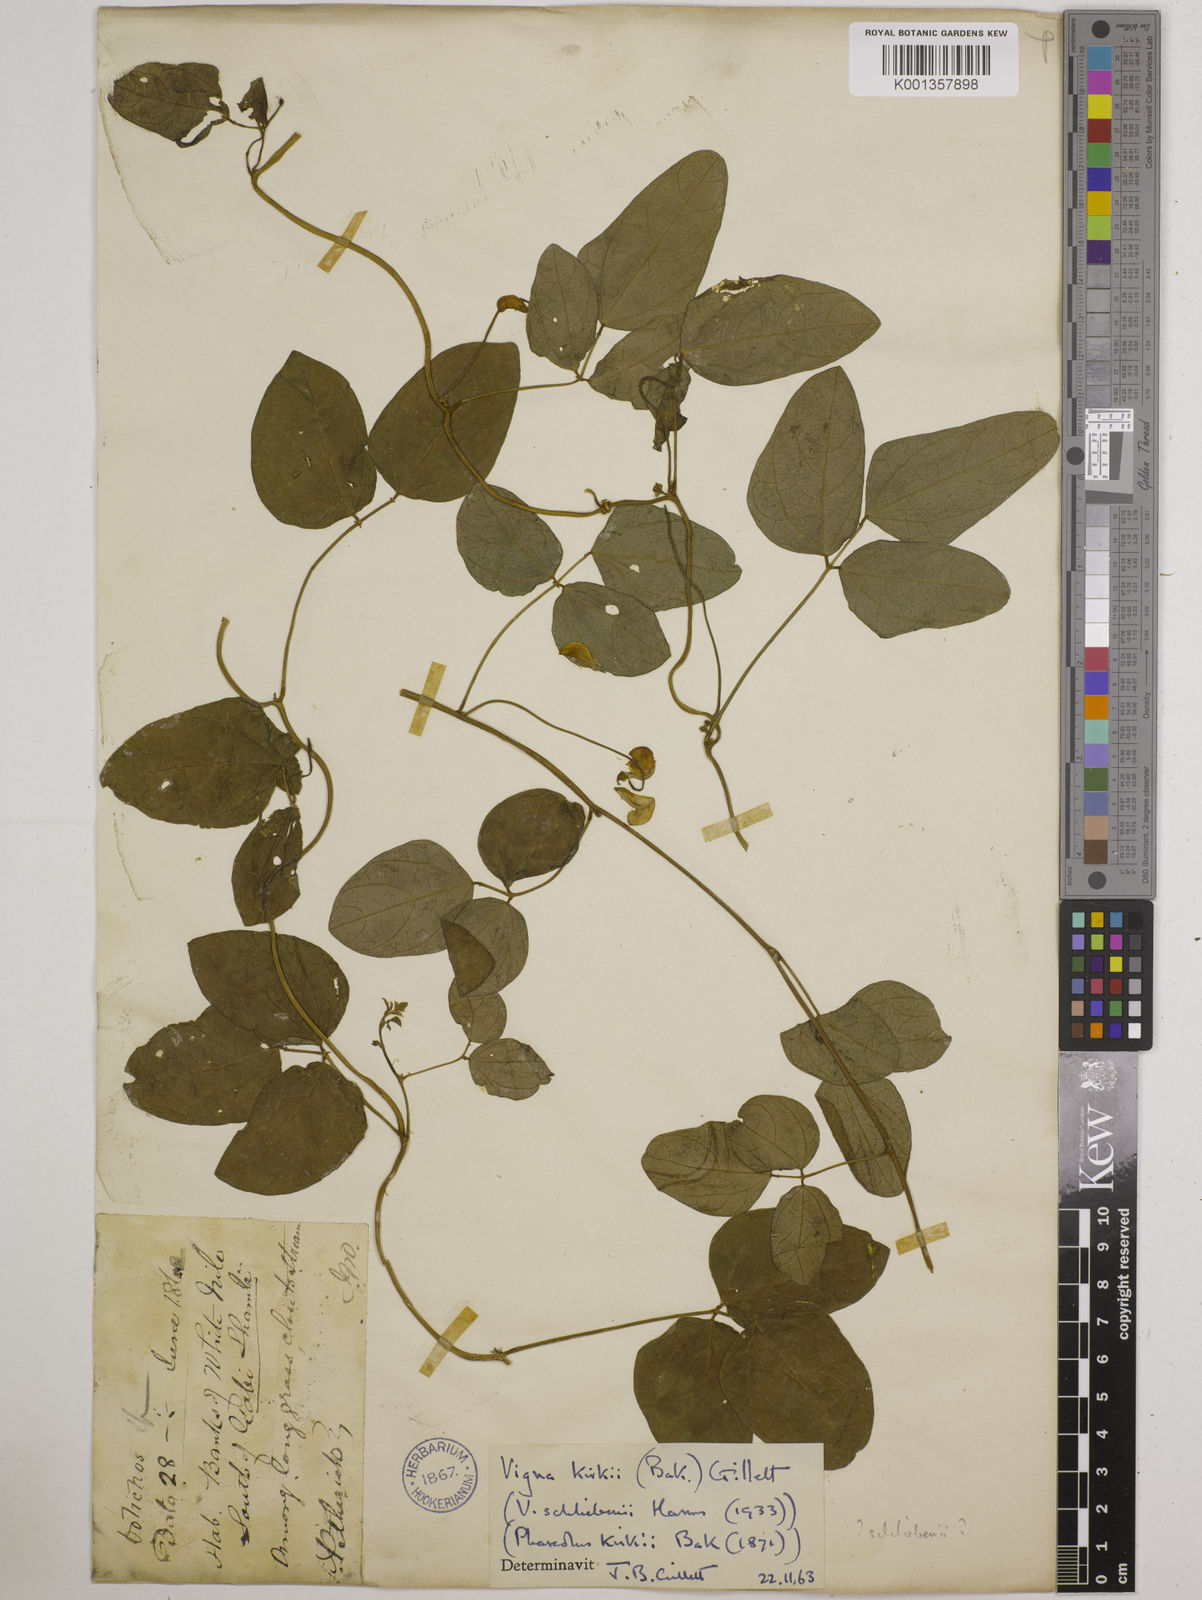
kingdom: Plantae
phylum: Tracheophyta
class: Magnoliopsida
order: Fabales
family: Fabaceae
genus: Vigna
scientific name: Vigna kirkii
